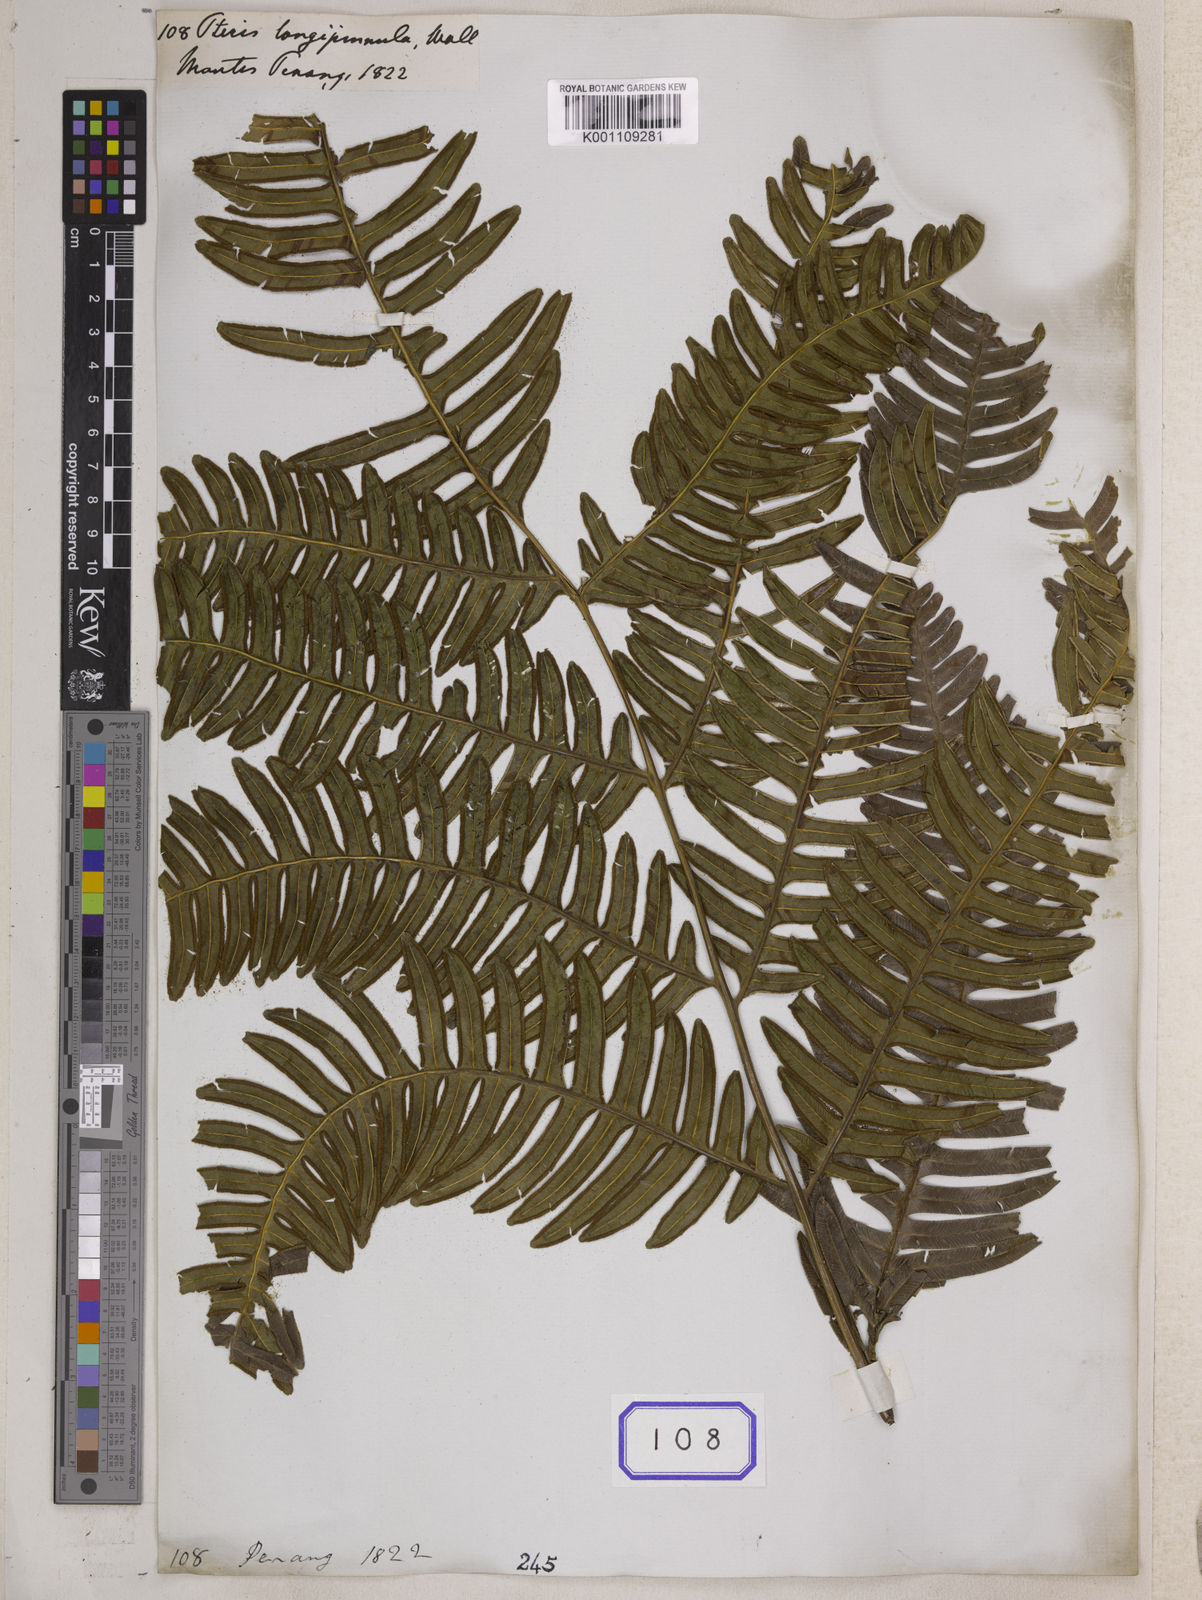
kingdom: Plantae
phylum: Tracheophyta
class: Polypodiopsida
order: Polypodiales
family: Pteridaceae
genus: Pteris
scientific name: Pteris longipinnula
